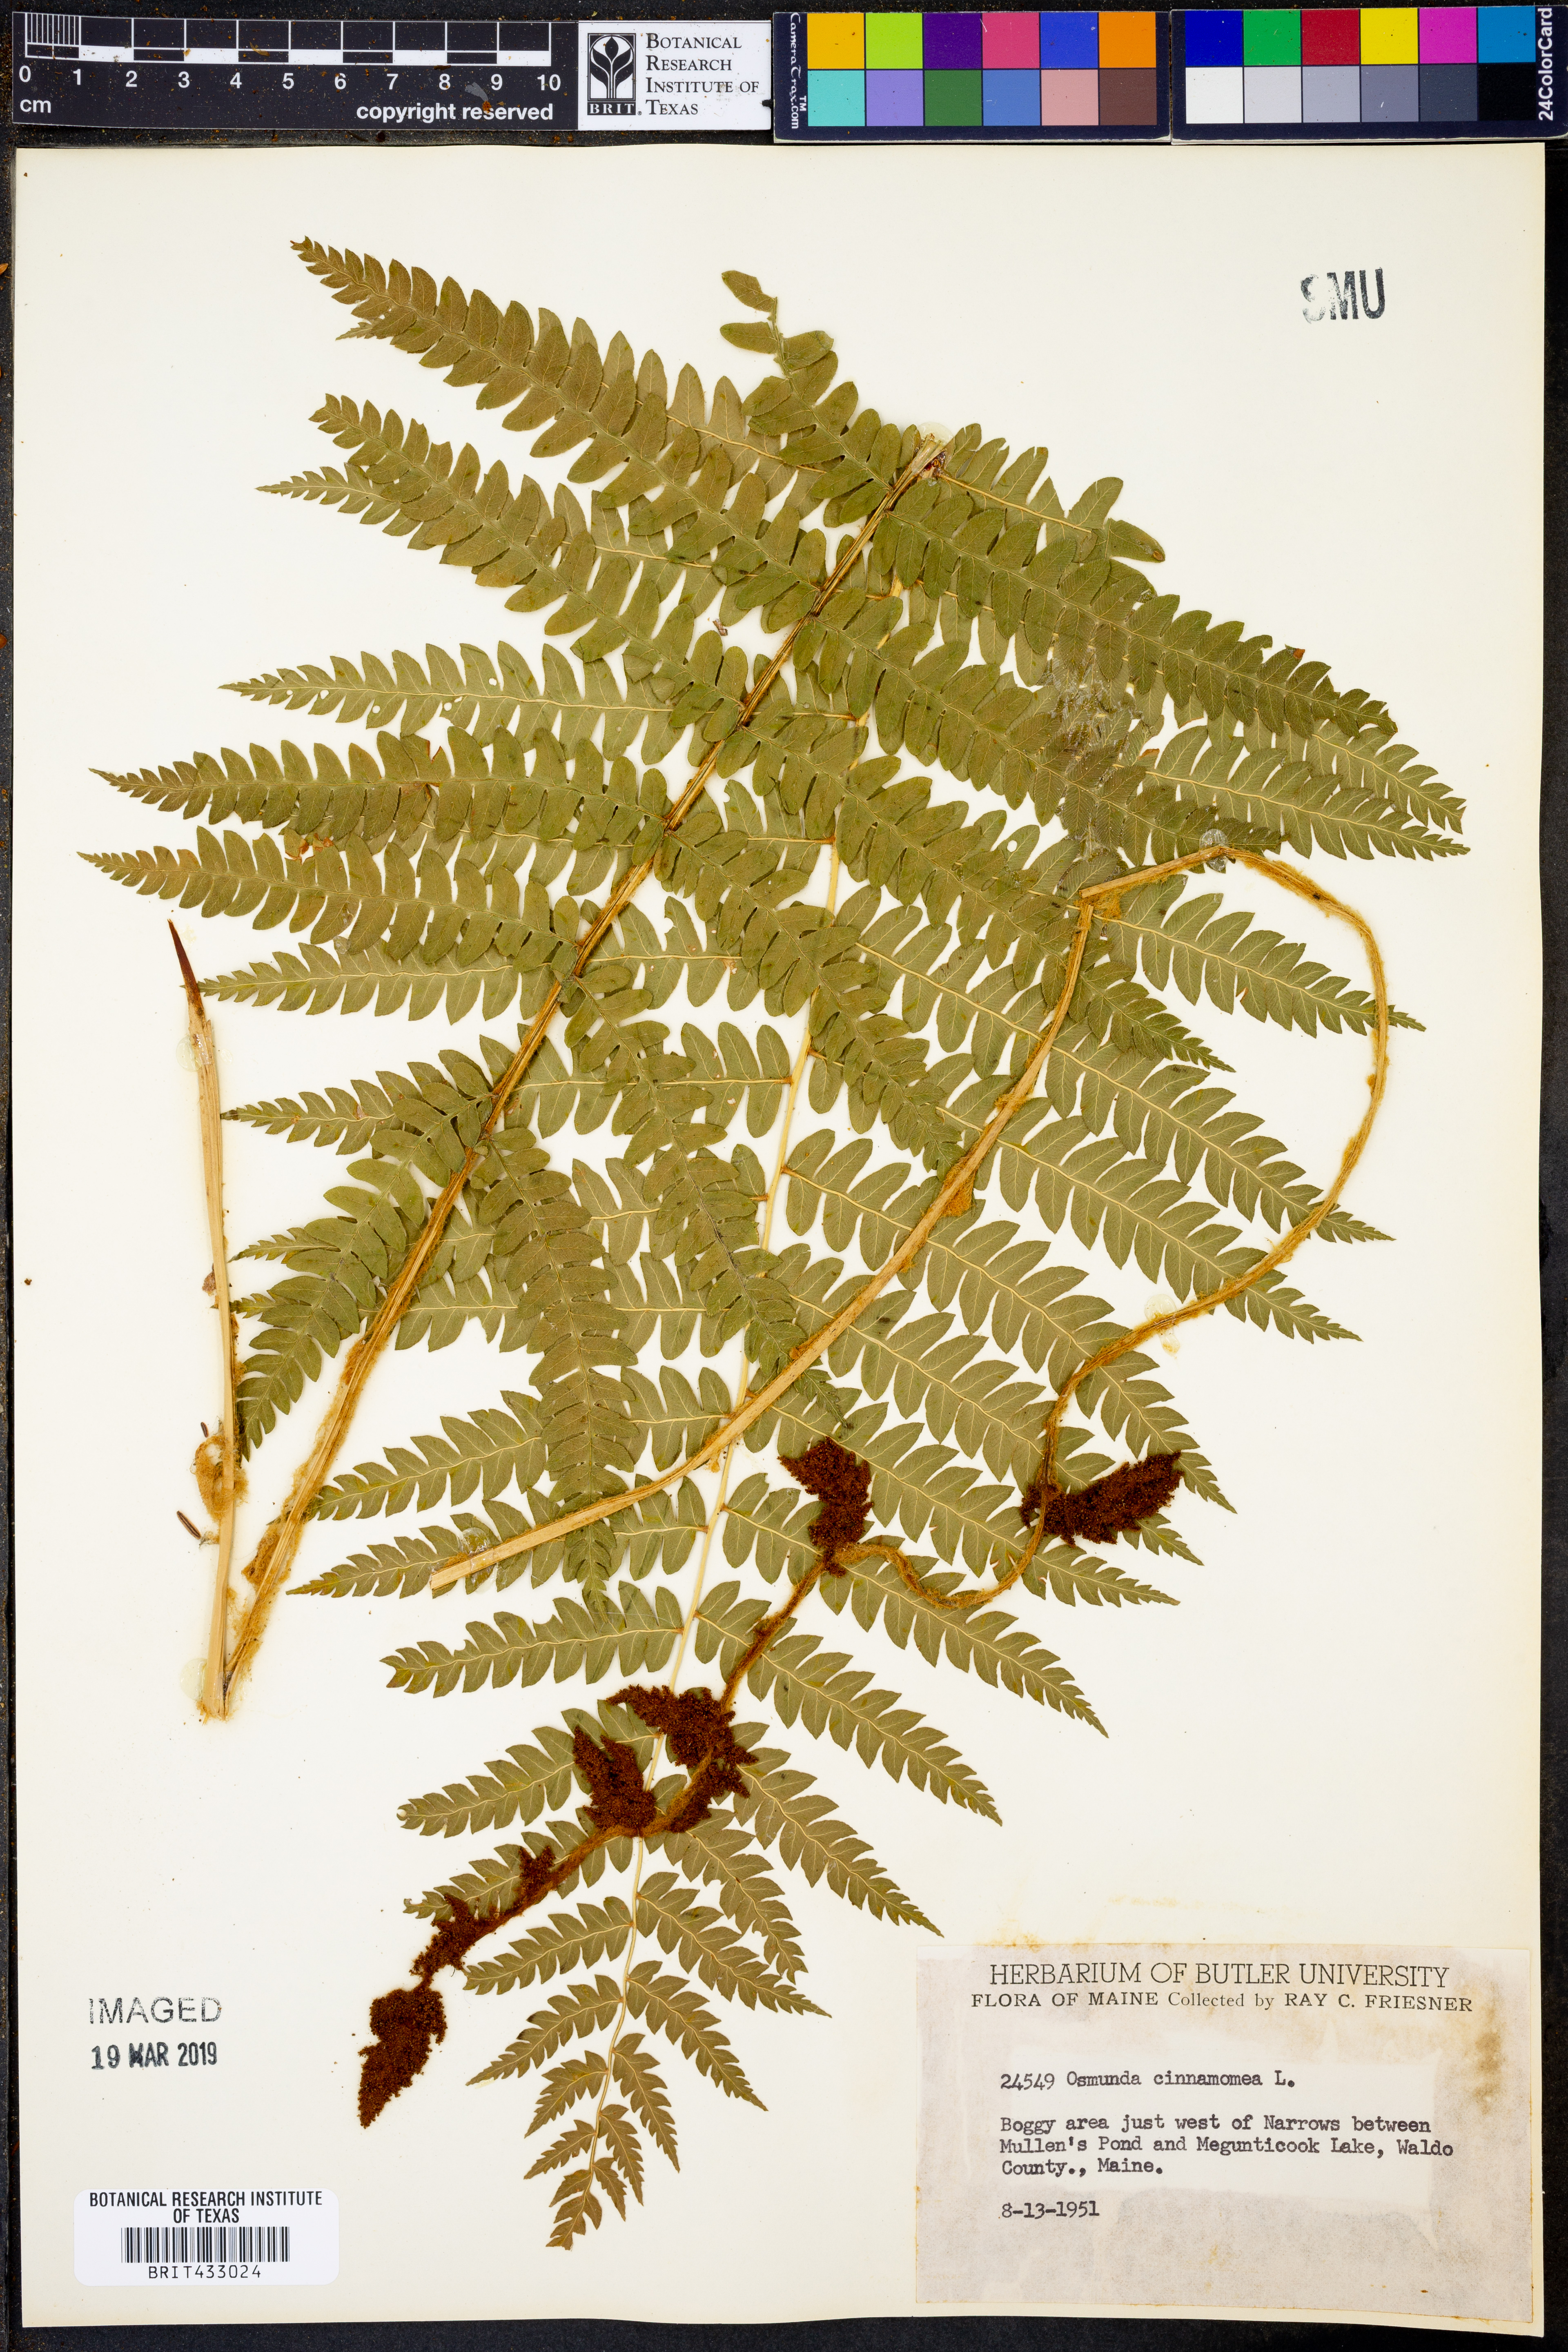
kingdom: Plantae
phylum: Tracheophyta
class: Polypodiopsida
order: Osmundales
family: Osmundaceae
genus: Osmundastrum
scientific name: Osmundastrum cinnamomeum
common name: Cinnamon fern
